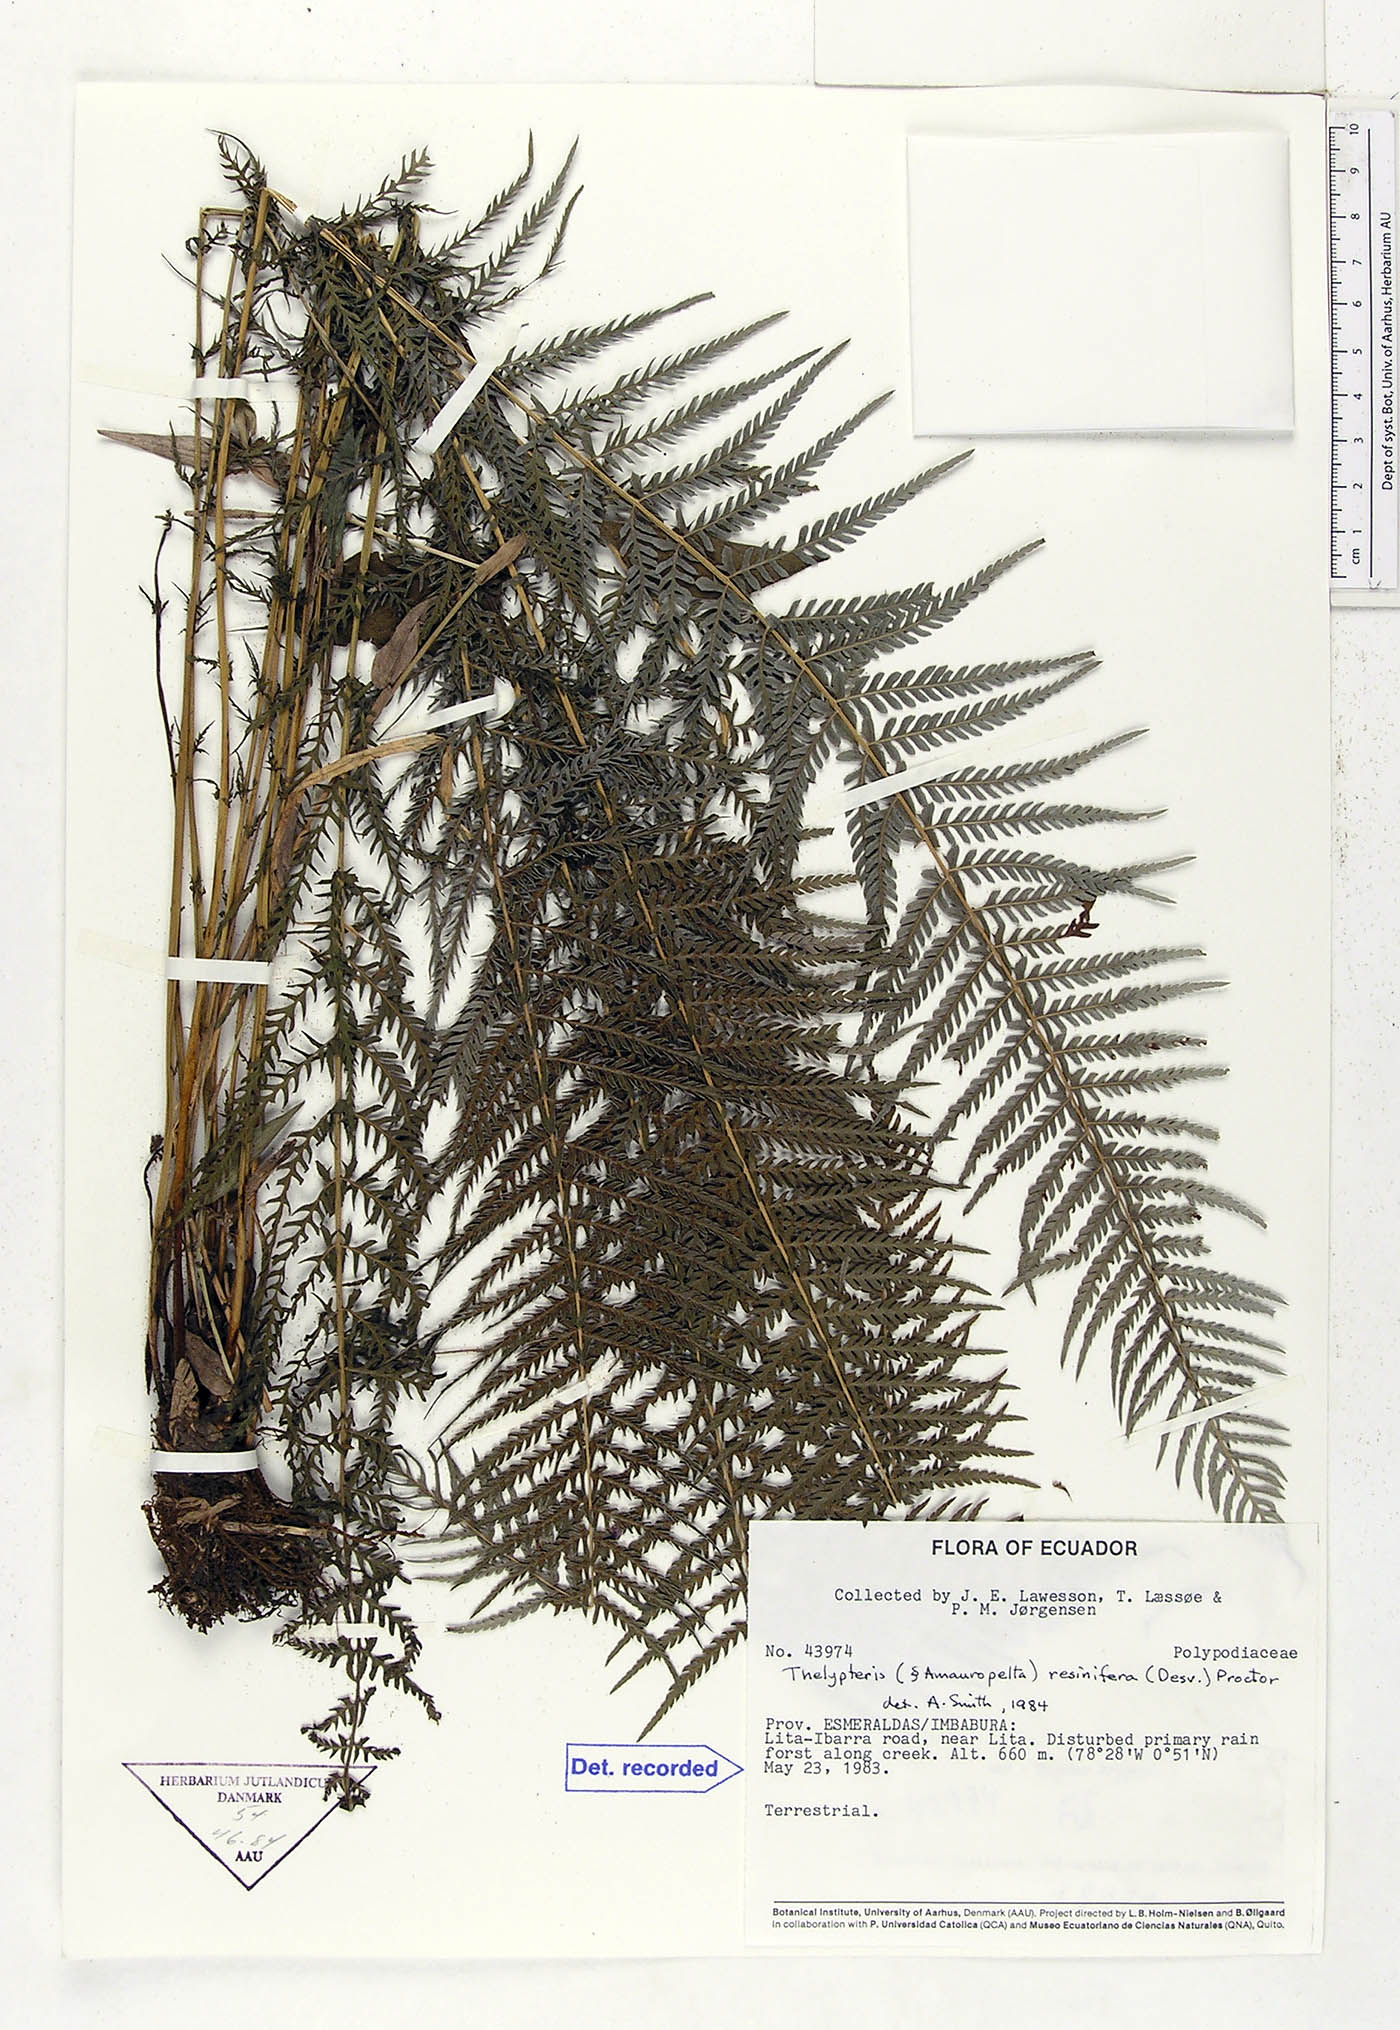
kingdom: Plantae
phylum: Tracheophyta
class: Polypodiopsida
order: Polypodiales
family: Thelypteridaceae
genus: Amauropelta
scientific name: Amauropelta resinifera
